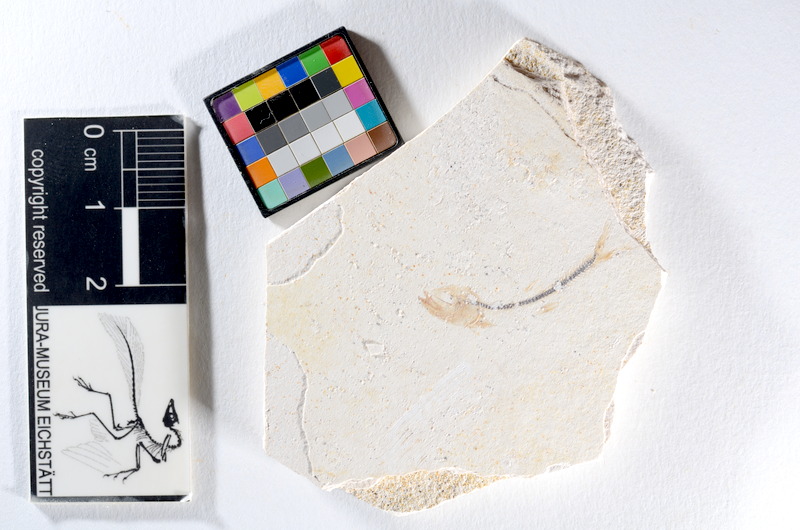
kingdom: Animalia
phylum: Chordata
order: Salmoniformes
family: Orthogonikleithridae
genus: Orthogonikleithrus
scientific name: Orthogonikleithrus hoelli
